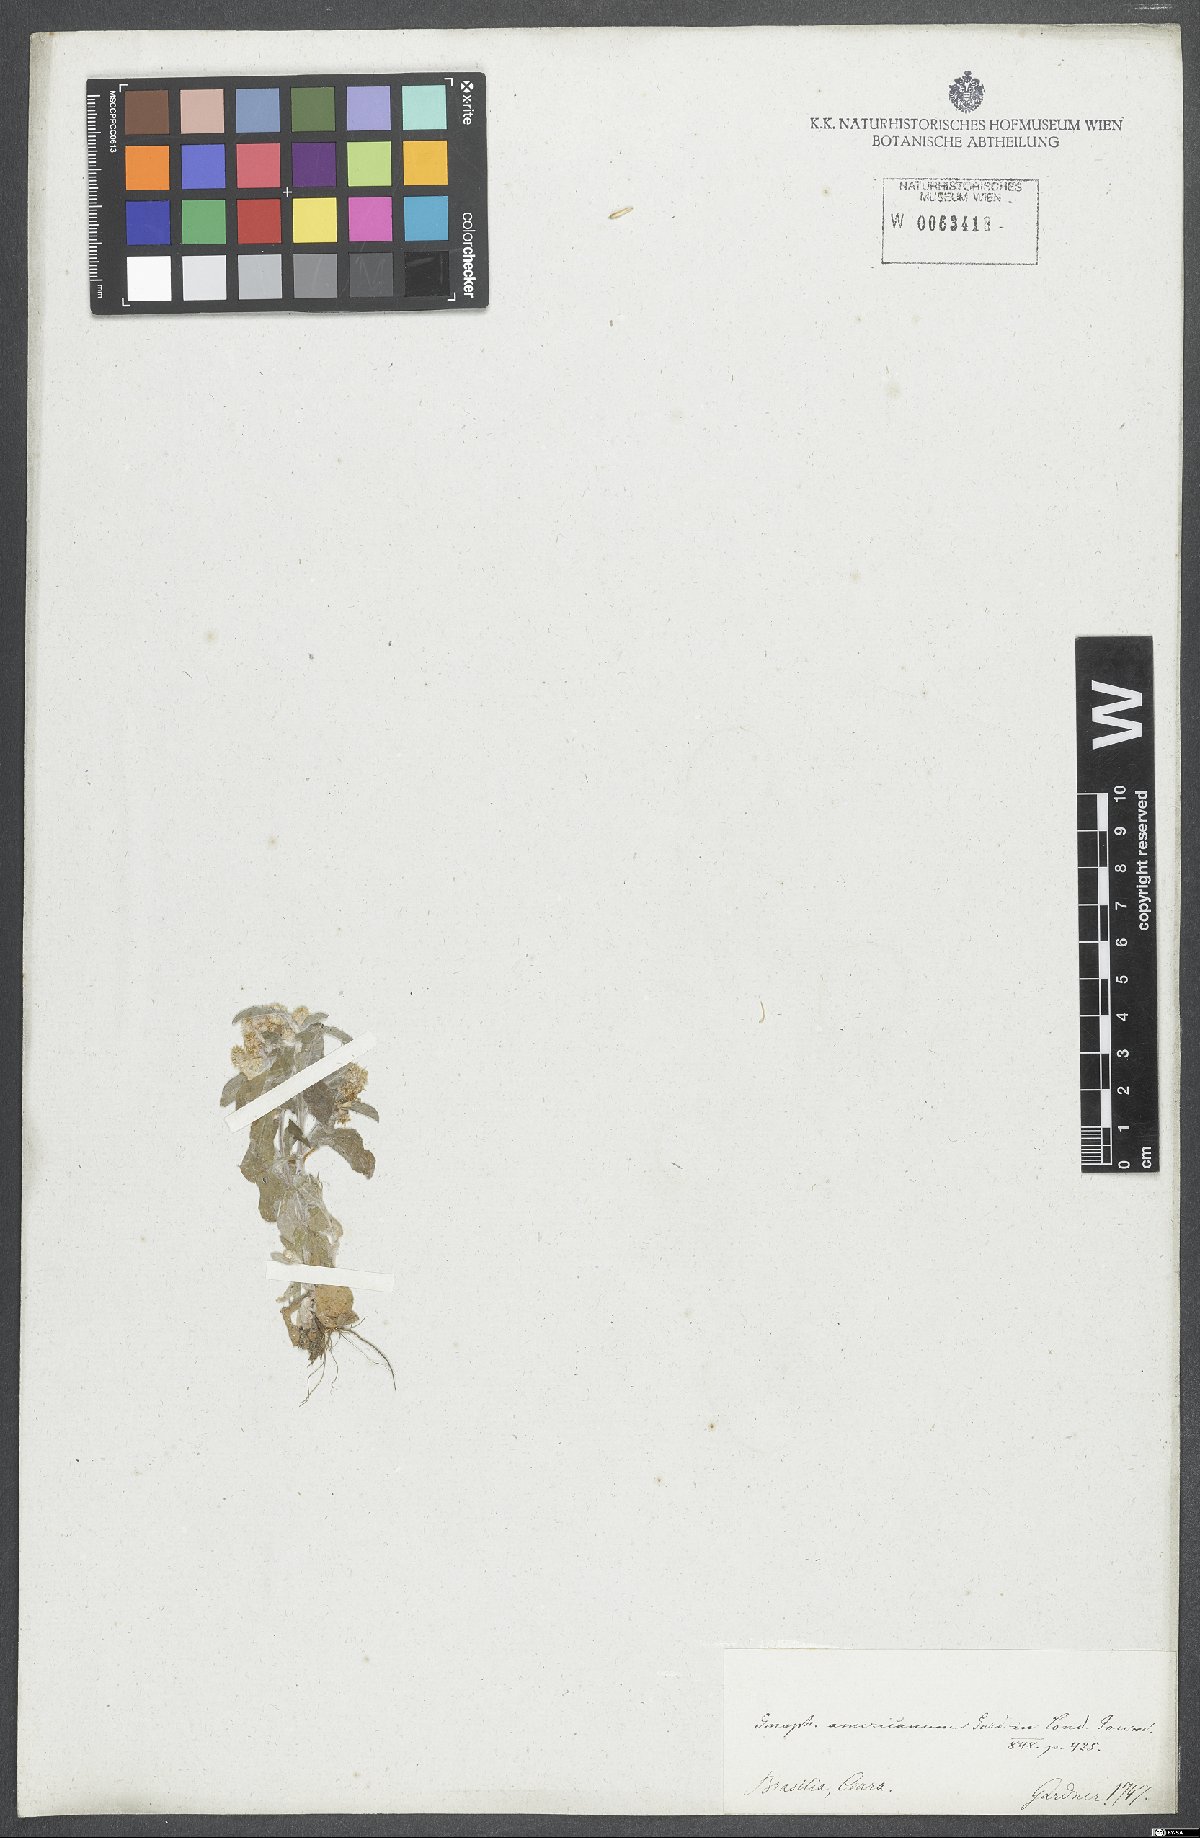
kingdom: Plantae
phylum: Tracheophyta
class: Magnoliopsida
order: Asterales
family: Asteraceae
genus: Gamochaeta
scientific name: Gamochaeta filaginea
